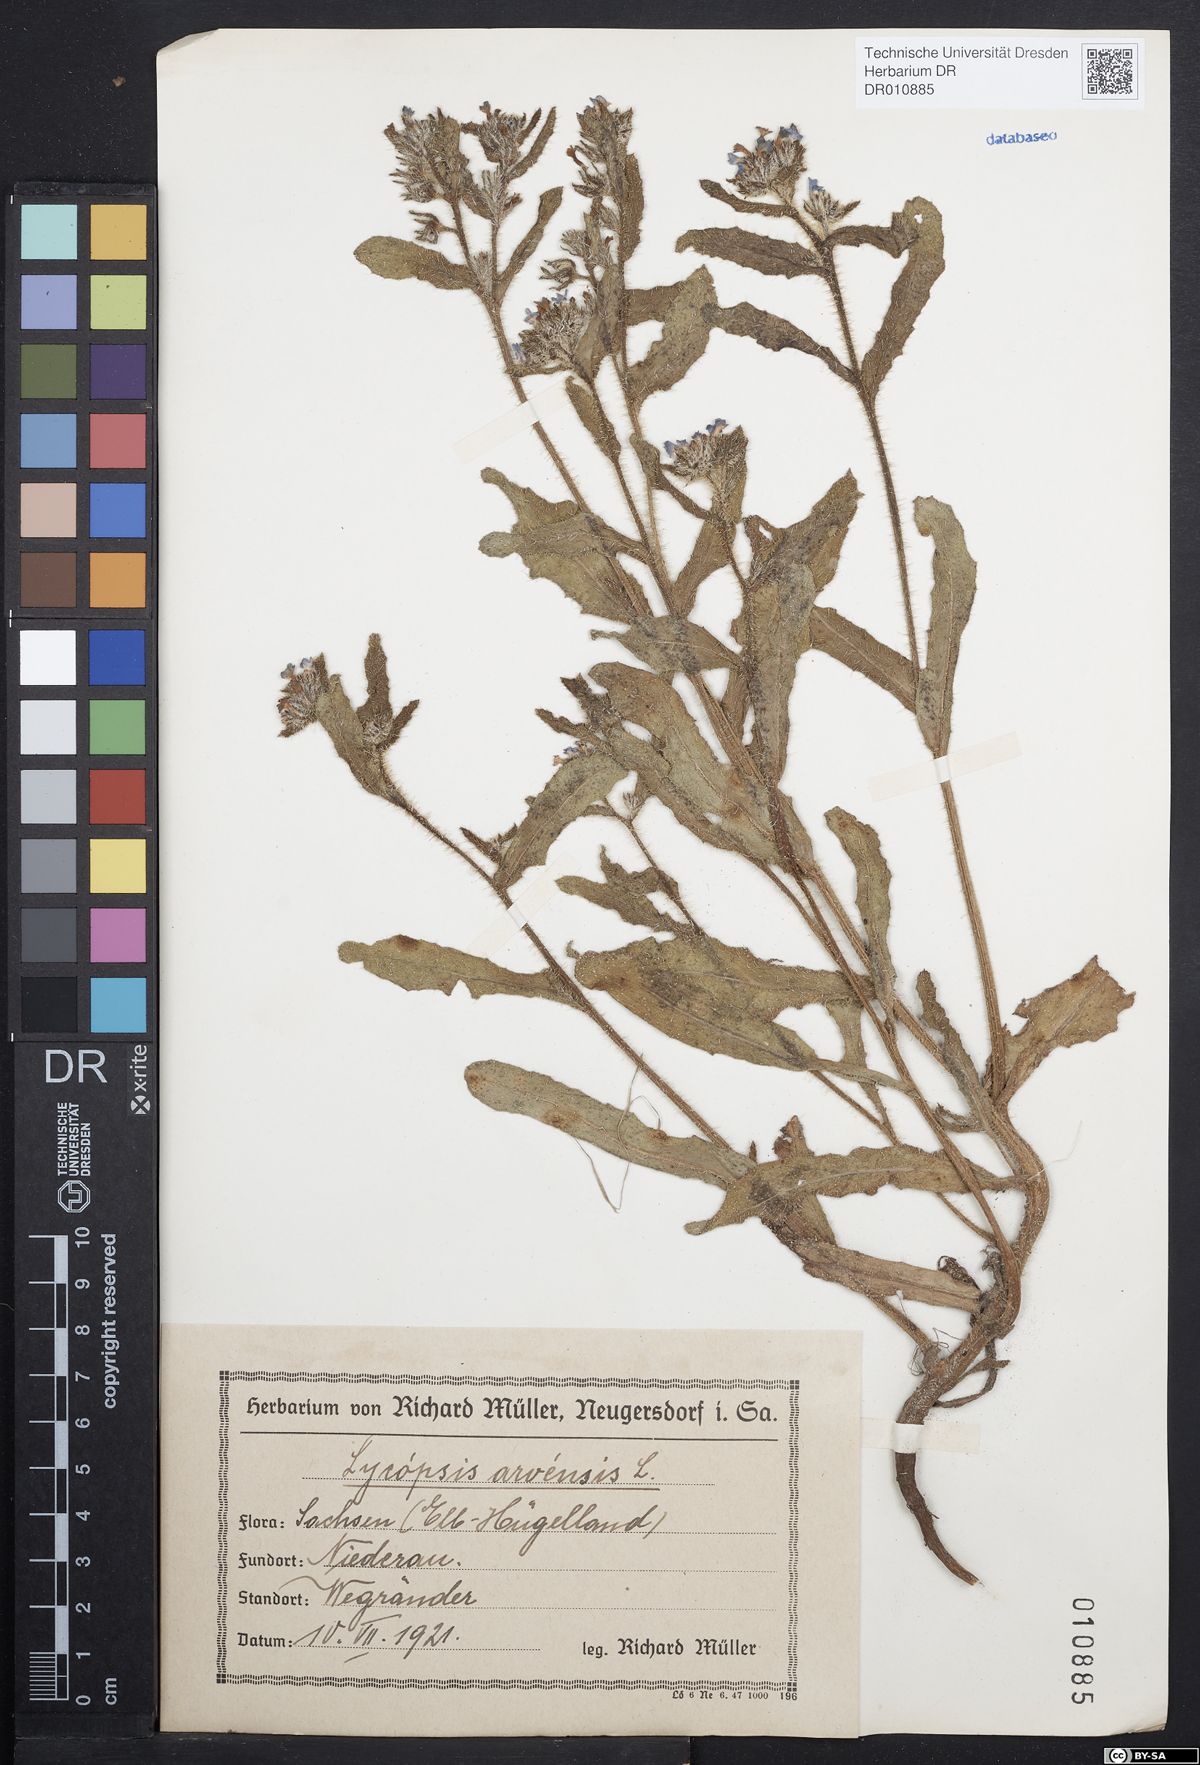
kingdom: Plantae
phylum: Tracheophyta
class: Magnoliopsida
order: Boraginales
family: Boraginaceae
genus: Lycopsis
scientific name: Lycopsis arvensis
